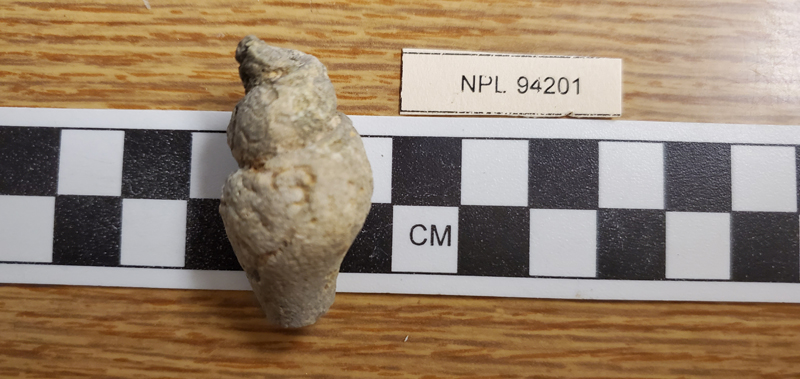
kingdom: Animalia
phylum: Mollusca
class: Gastropoda
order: Littorinimorpha
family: Aporrhaidae
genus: Aporrhais
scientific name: Aporrhais
